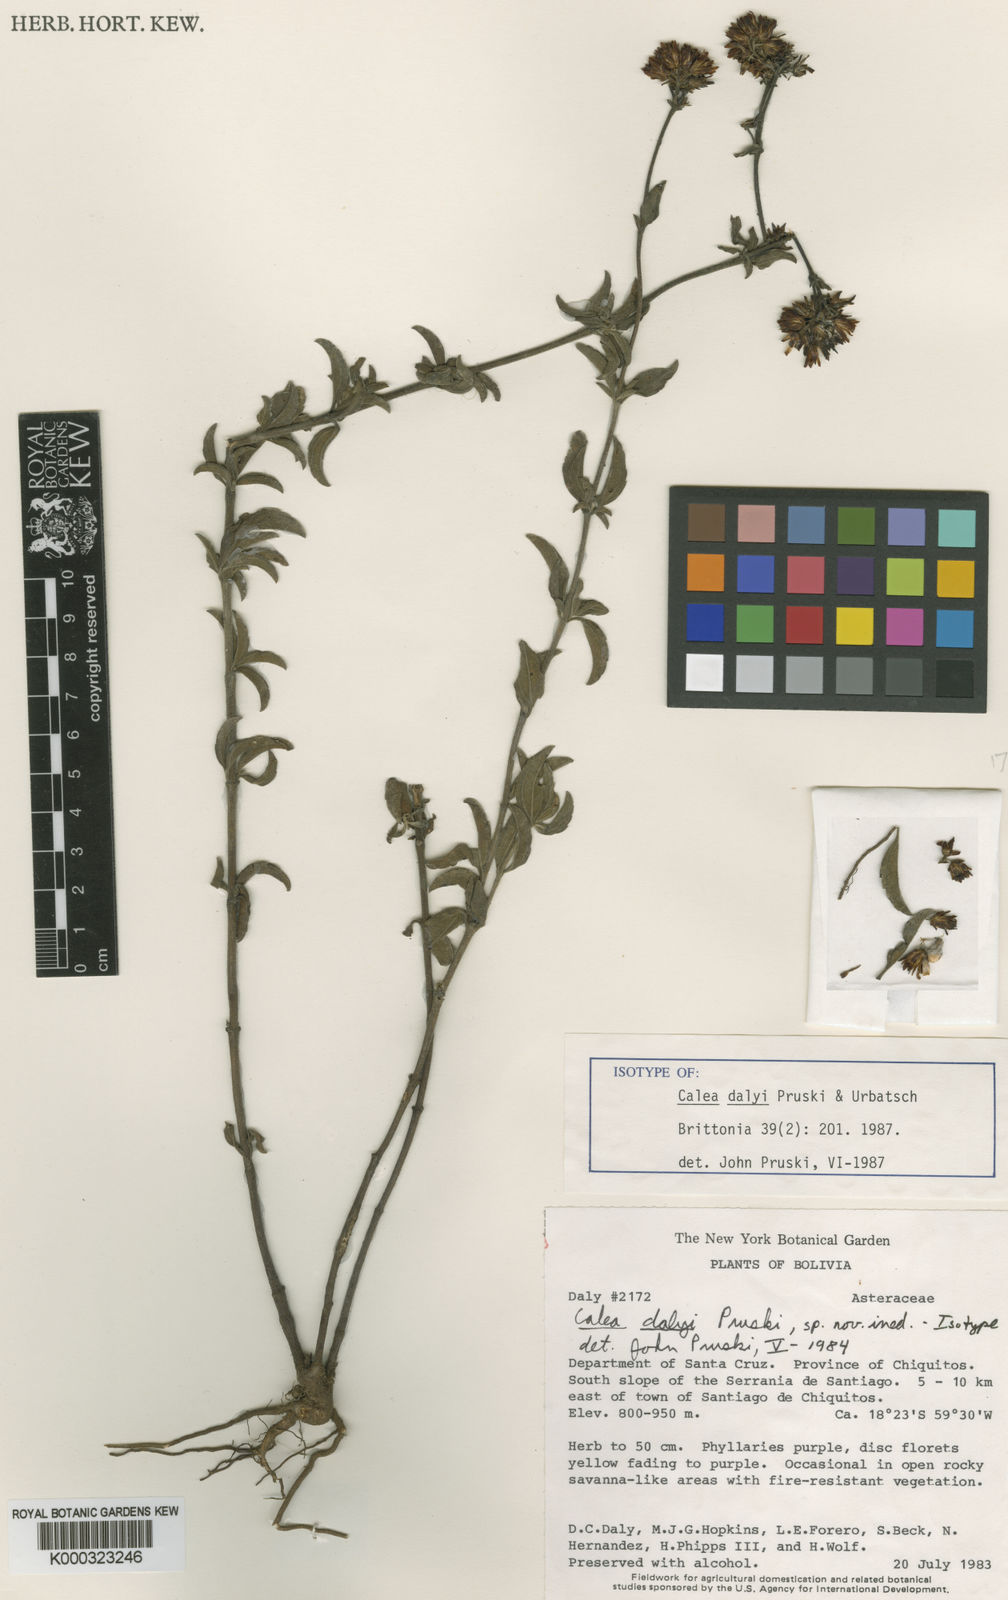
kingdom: Plantae
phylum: Tracheophyta
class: Magnoliopsida
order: Asterales
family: Asteraceae
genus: Calea
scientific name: Calea dalyi
